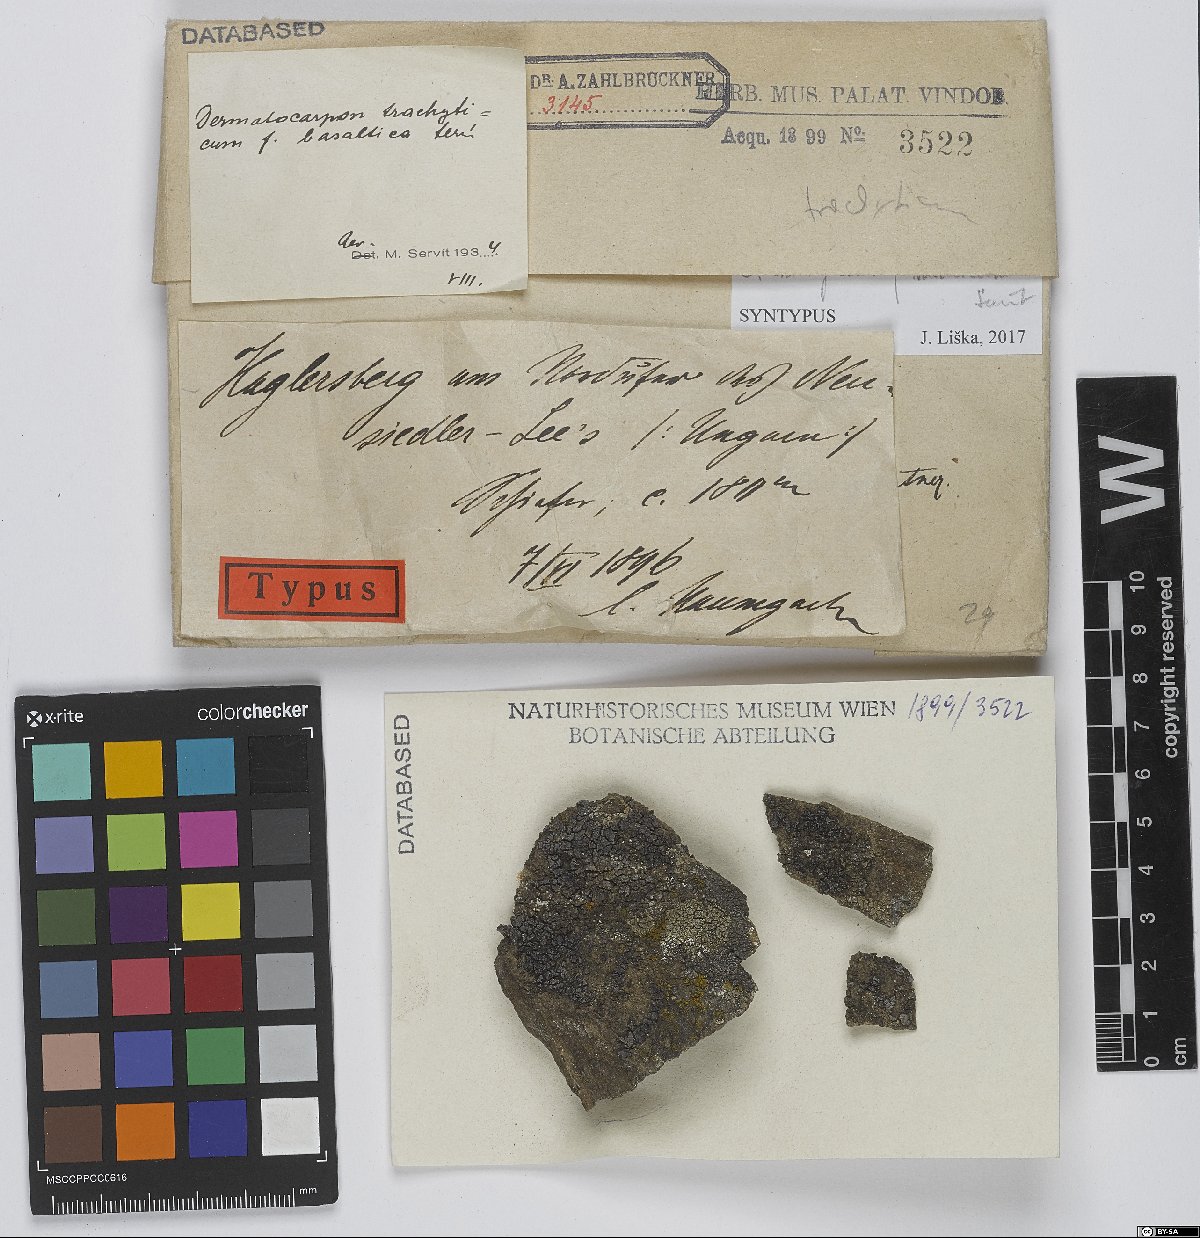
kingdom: Fungi
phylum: Ascomycota
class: Eurotiomycetes
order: Verrucariales
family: Verrucariaceae
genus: Placopyrenium
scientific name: Placopyrenium trachyticum
